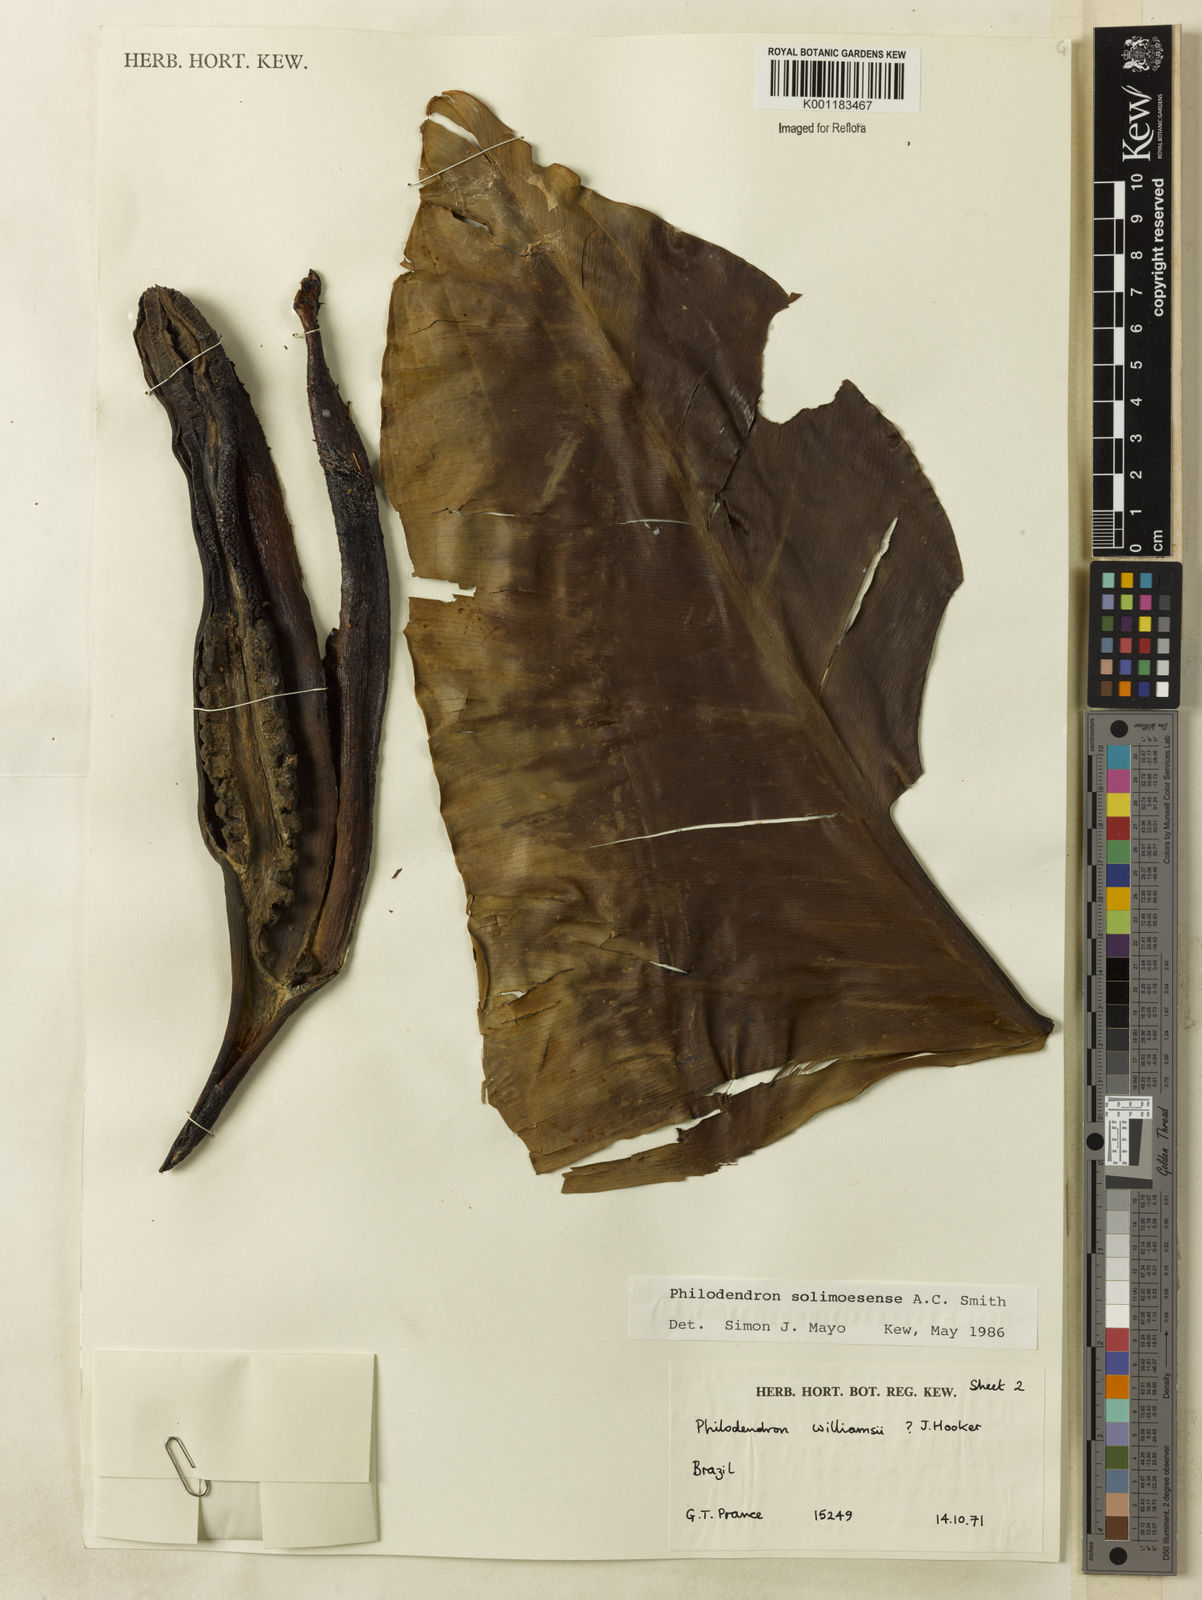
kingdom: Plantae
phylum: Tracheophyta
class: Liliopsida
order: Alismatales
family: Araceae
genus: Thaumatophyllum
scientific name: Thaumatophyllum solimoesense
